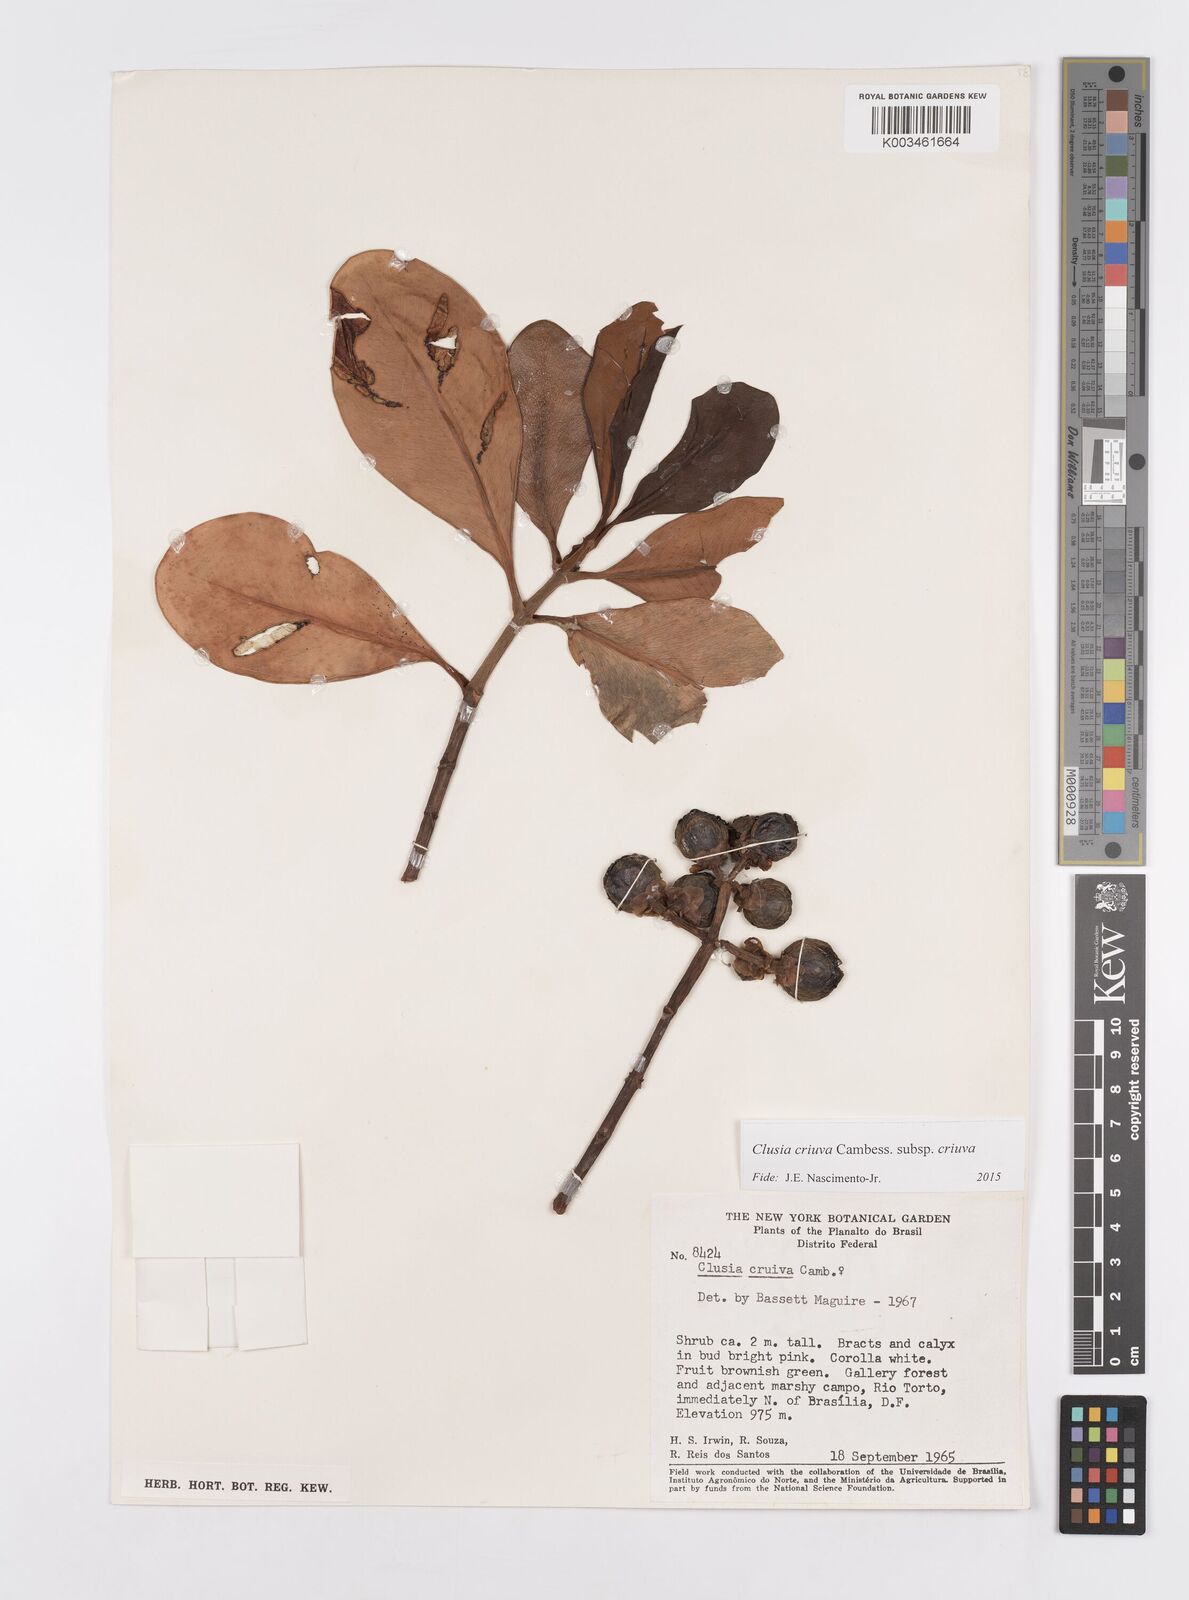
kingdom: Plantae
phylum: Tracheophyta
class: Magnoliopsida
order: Malpighiales
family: Clusiaceae
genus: Clusia
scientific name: Clusia criuva
